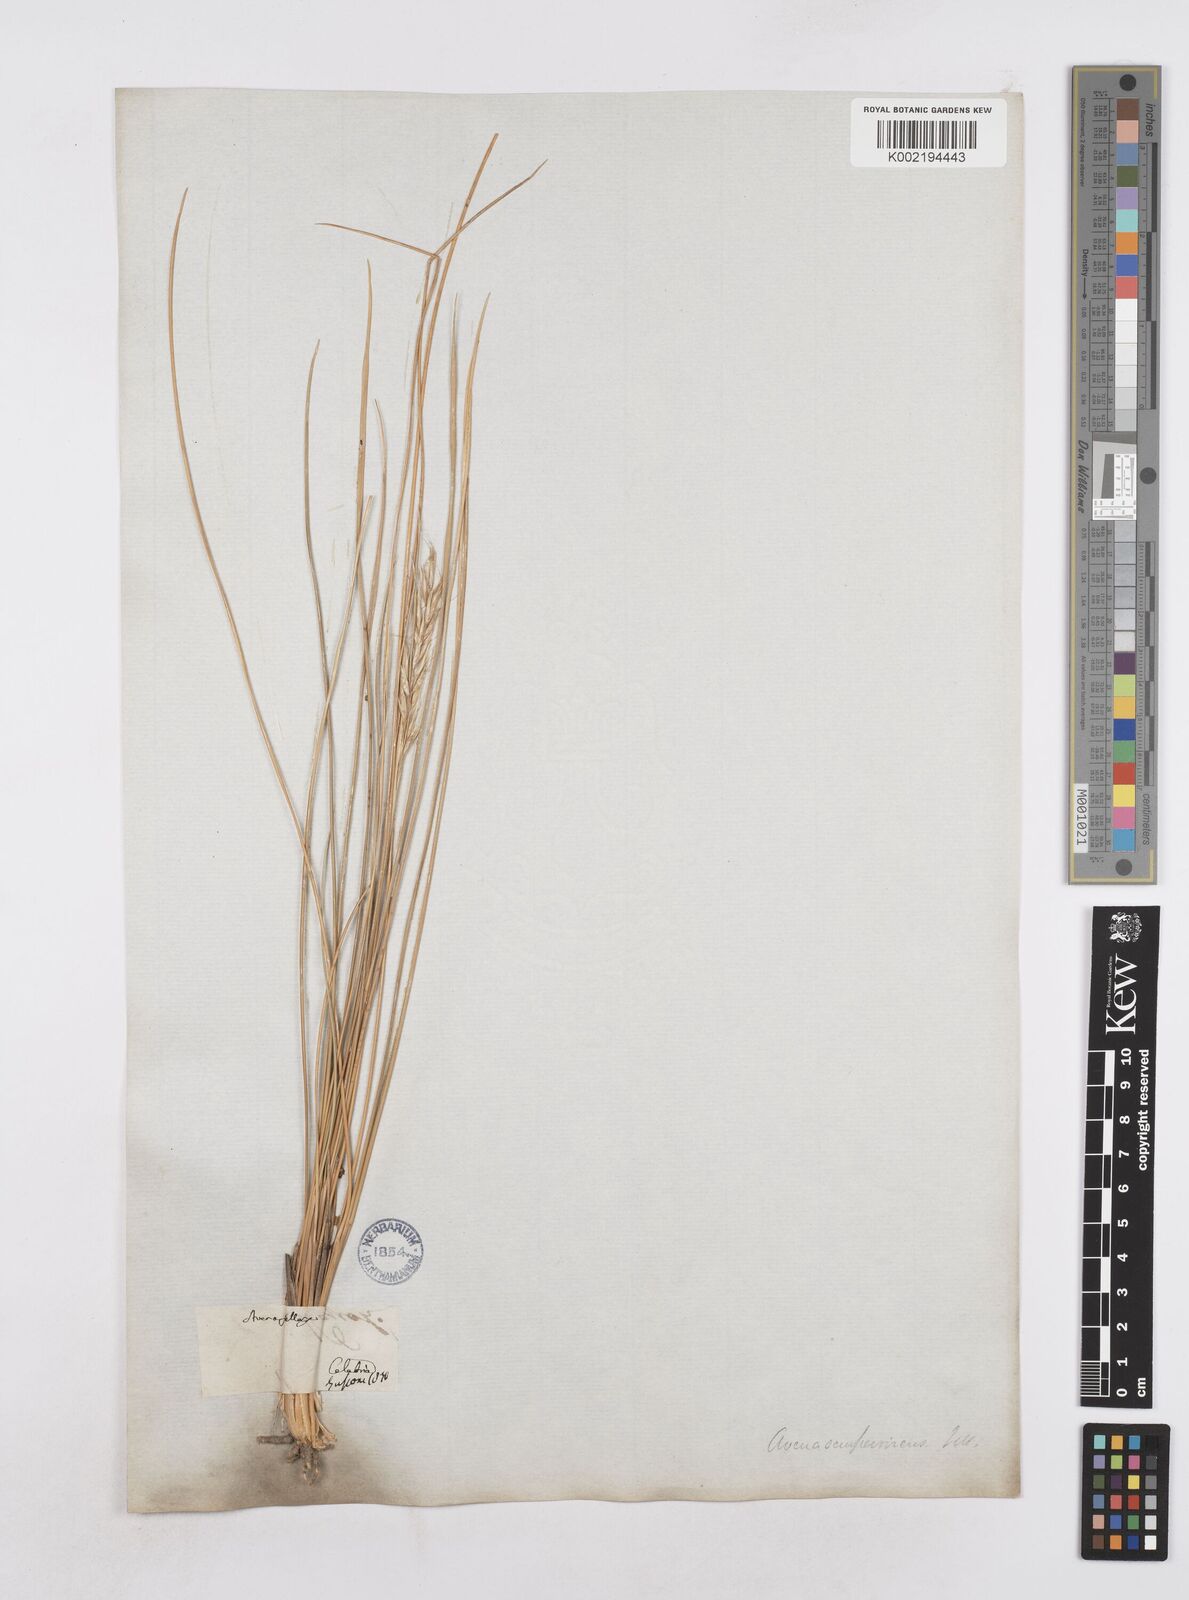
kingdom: Plantae
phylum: Tracheophyta
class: Liliopsida
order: Poales
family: Poaceae
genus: Helictotrichon
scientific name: Helictotrichon sempervirens
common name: Blue oat-grass
